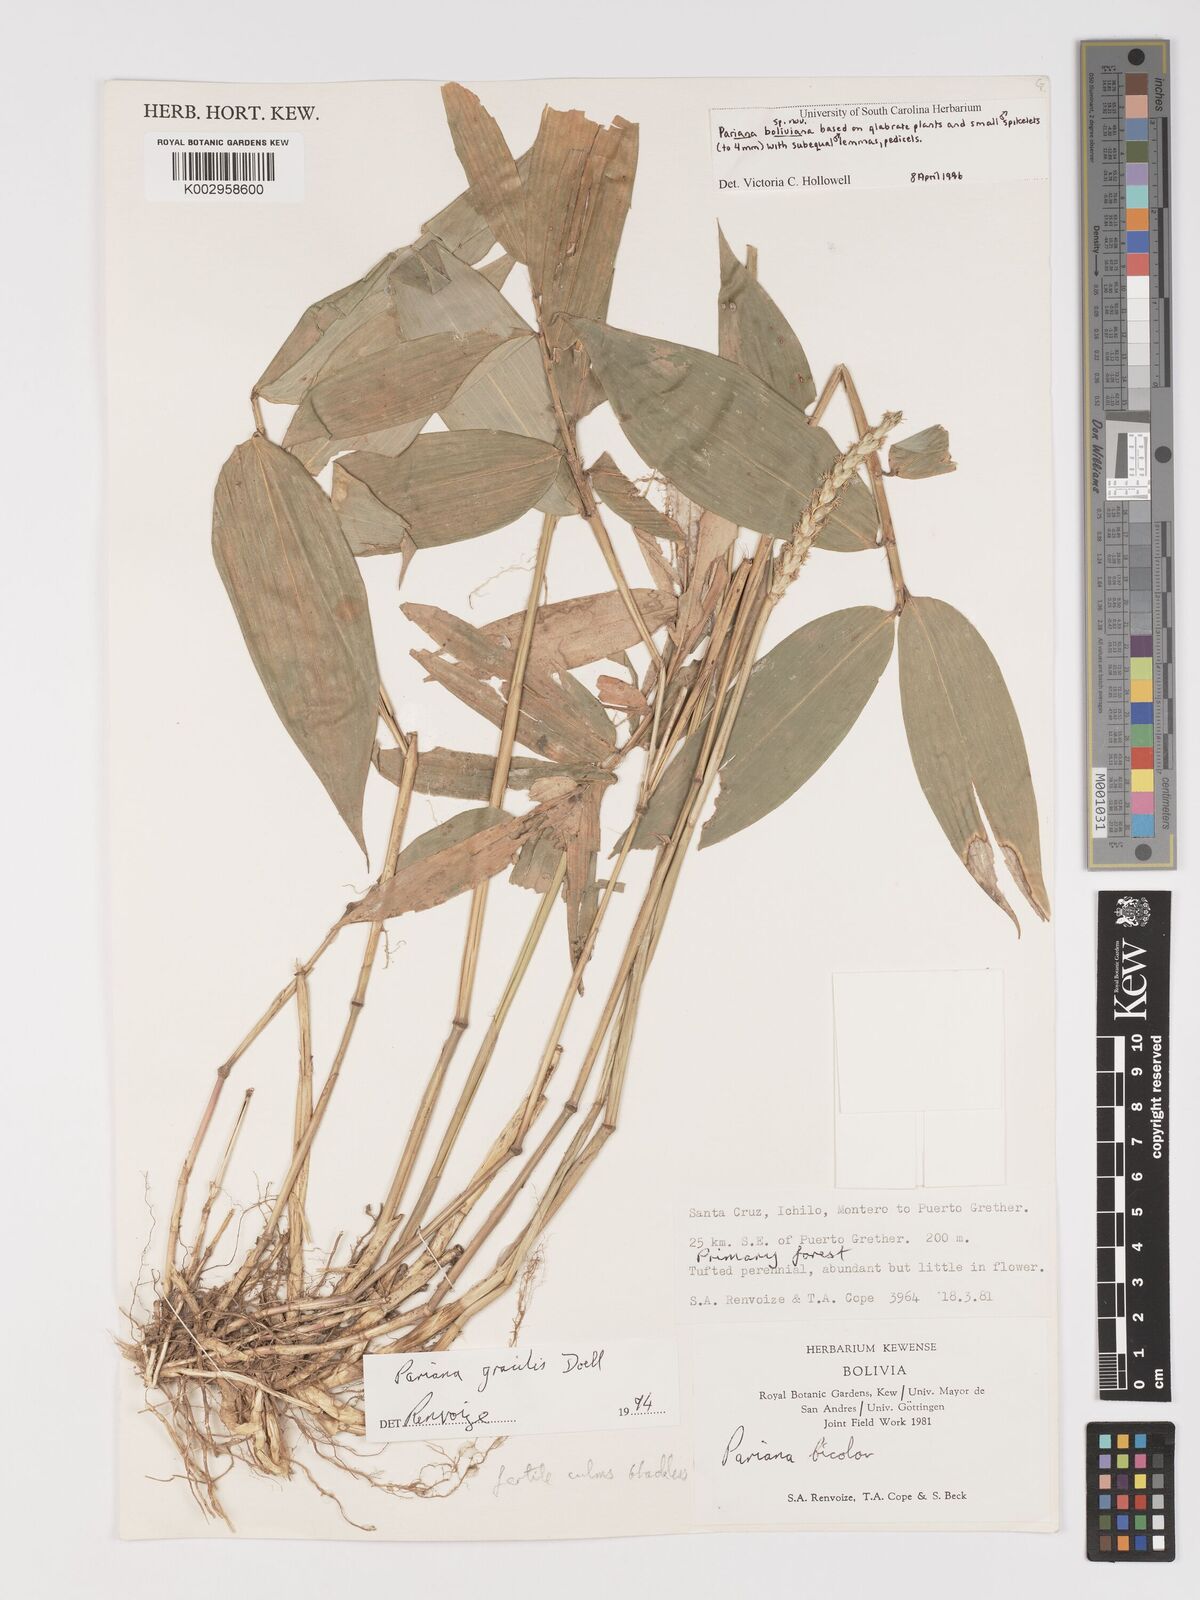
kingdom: Plantae
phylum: Tracheophyta
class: Liliopsida
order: Poales
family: Poaceae
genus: Pariana
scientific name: Pariana
